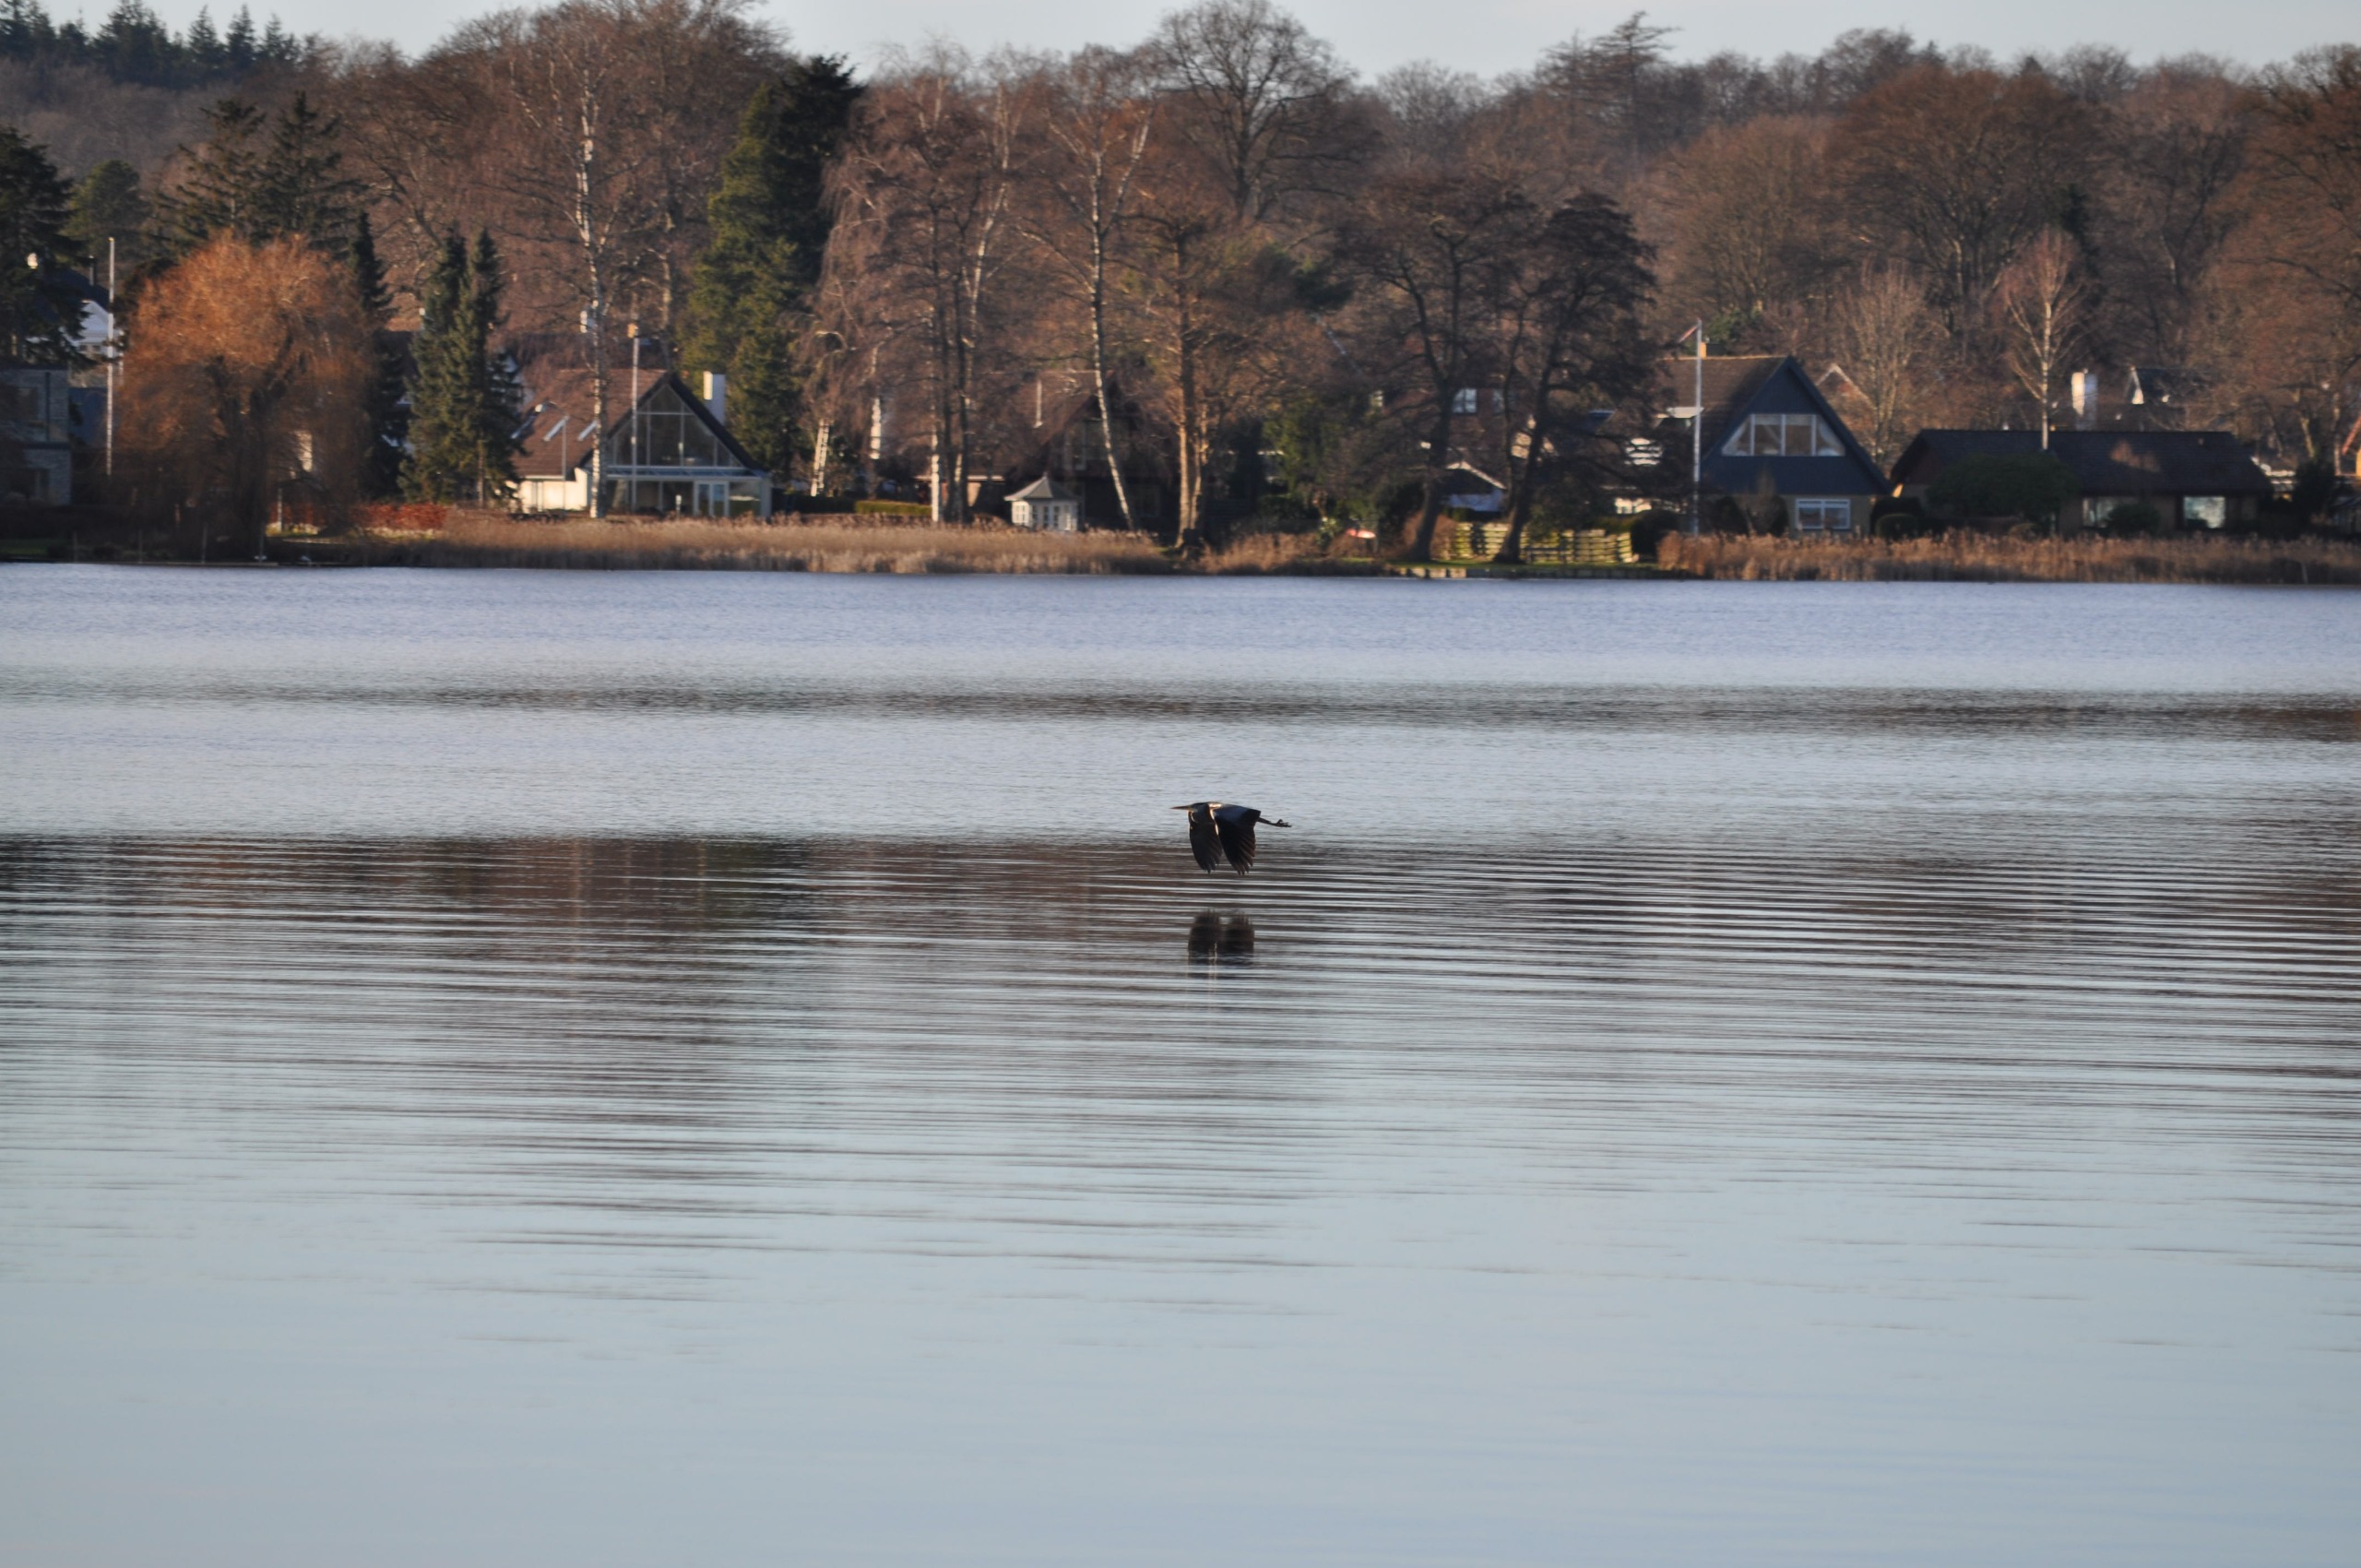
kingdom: Animalia
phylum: Chordata
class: Aves
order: Pelecaniformes
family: Ardeidae
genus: Ardea
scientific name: Ardea cinerea
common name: Fiskehejre
